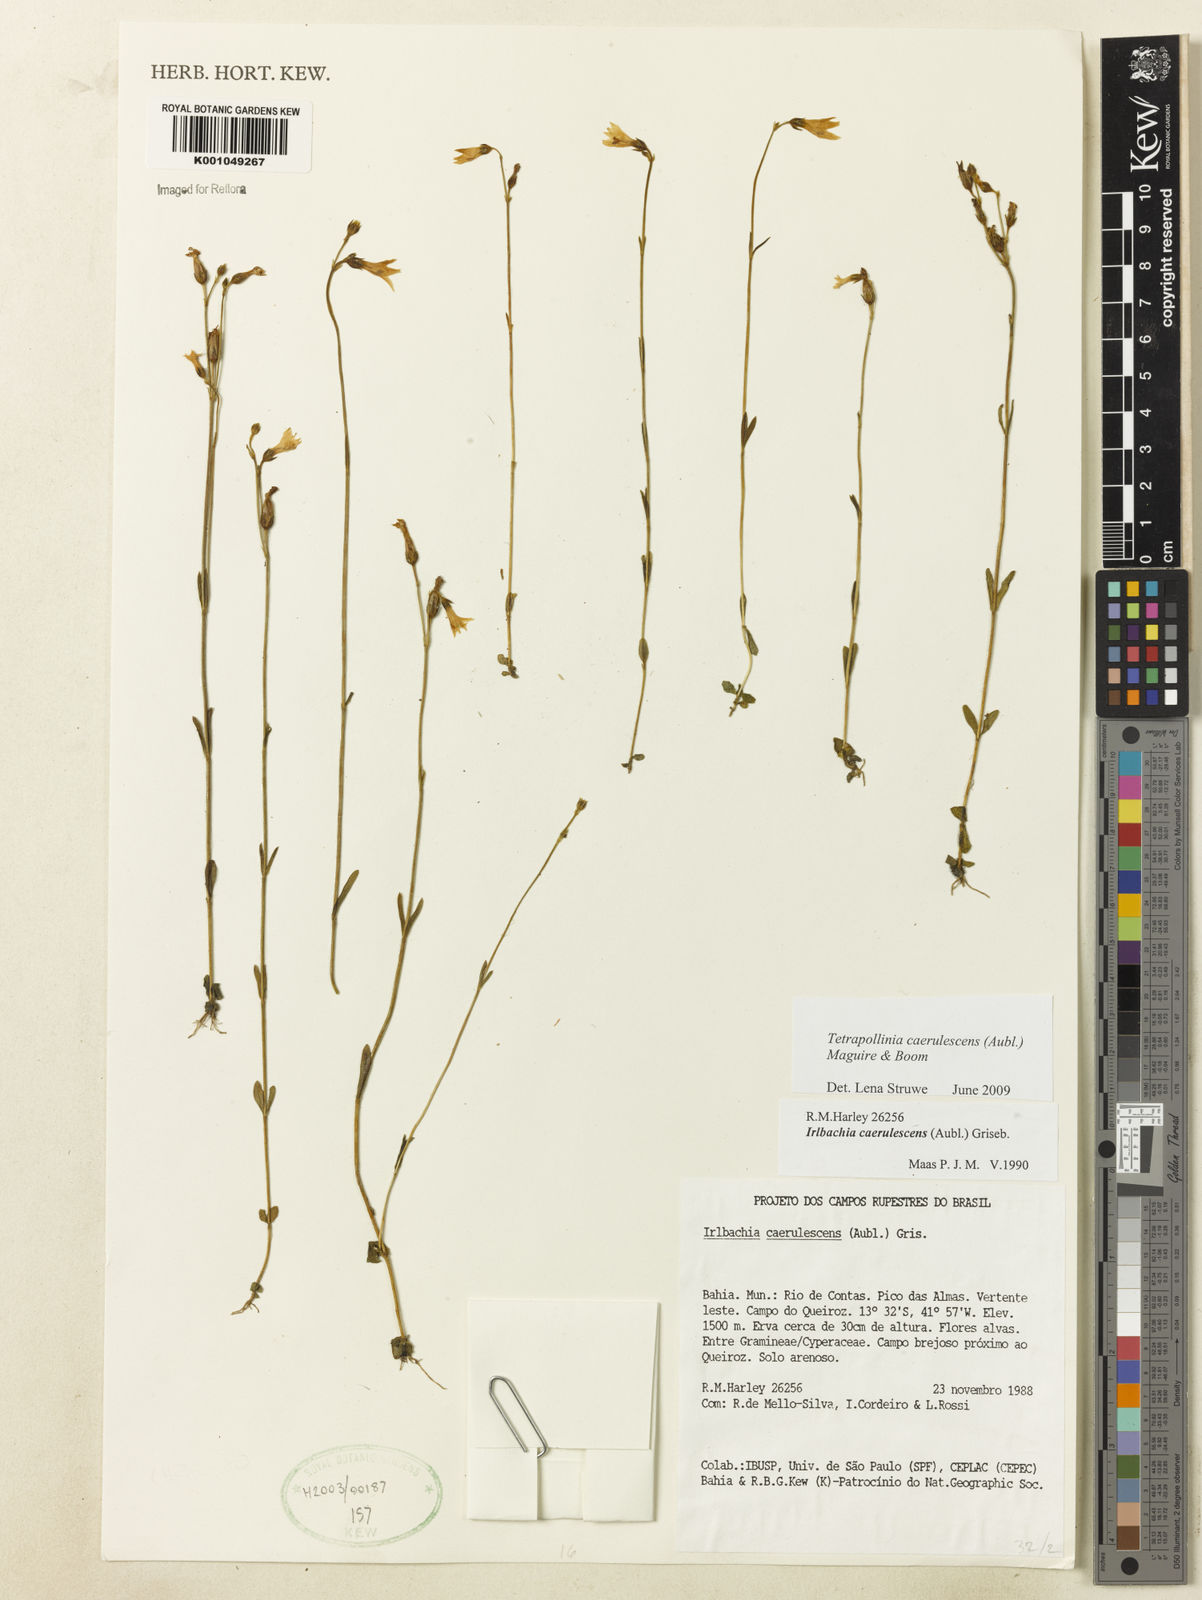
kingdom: Plantae
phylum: Tracheophyta
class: Magnoliopsida
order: Gentianales
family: Gentianaceae
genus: Tetrapollinia
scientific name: Tetrapollinia caerulescens
